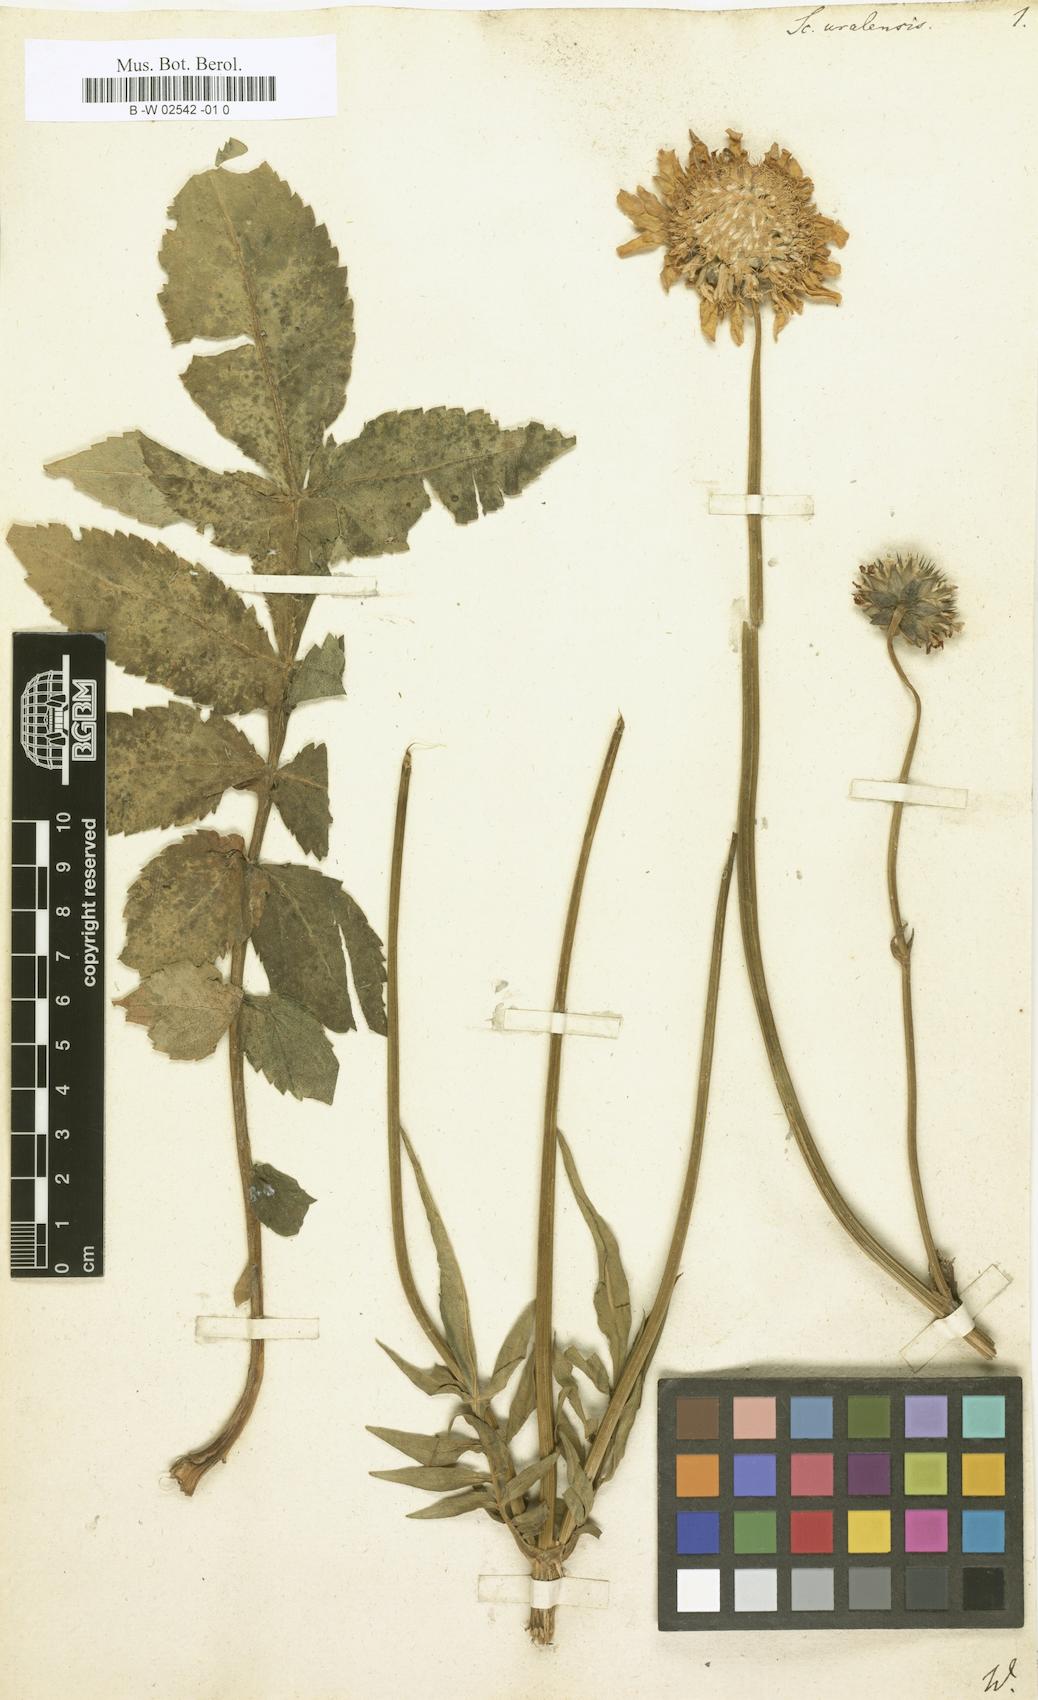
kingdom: Plantae
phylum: Tracheophyta
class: Magnoliopsida
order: Dipsacales
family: Caprifoliaceae
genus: Cephalaria
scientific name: Cephalaria uralensis
